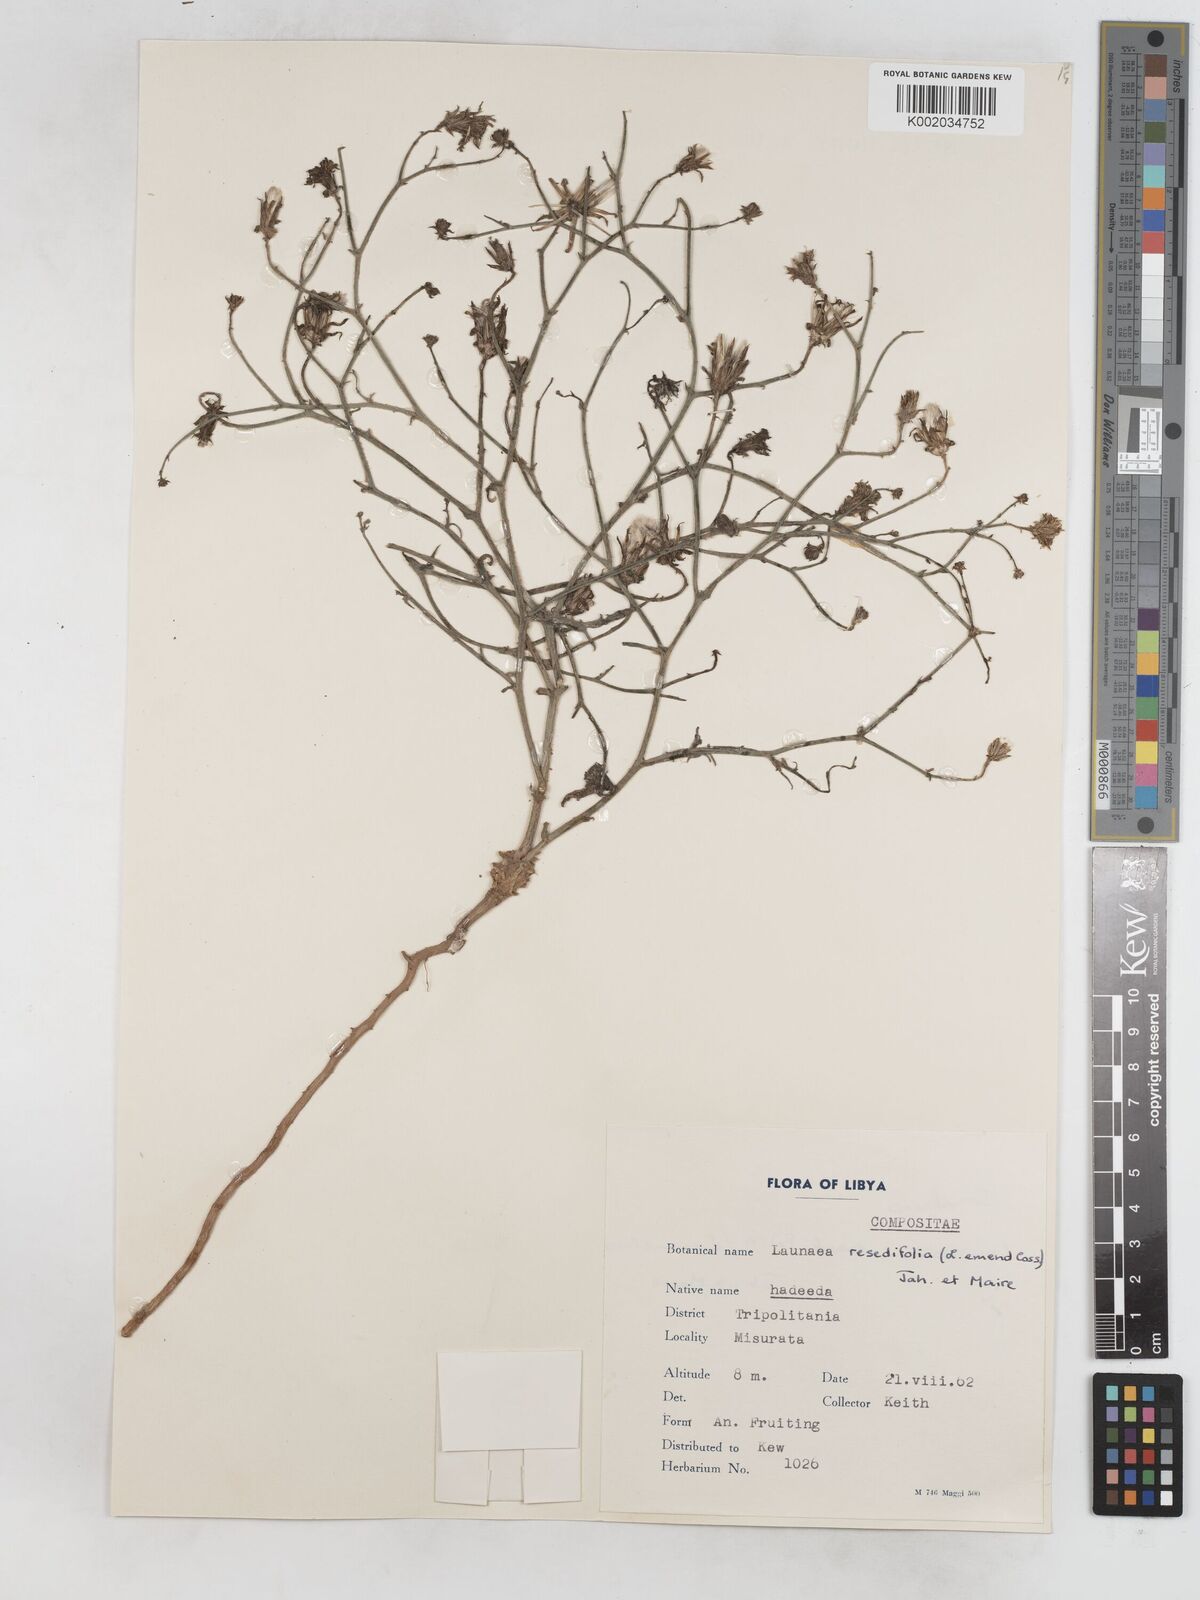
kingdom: Plantae
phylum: Tracheophyta
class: Magnoliopsida
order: Asterales
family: Asteraceae
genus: Launaea
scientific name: Launaea fragilis
